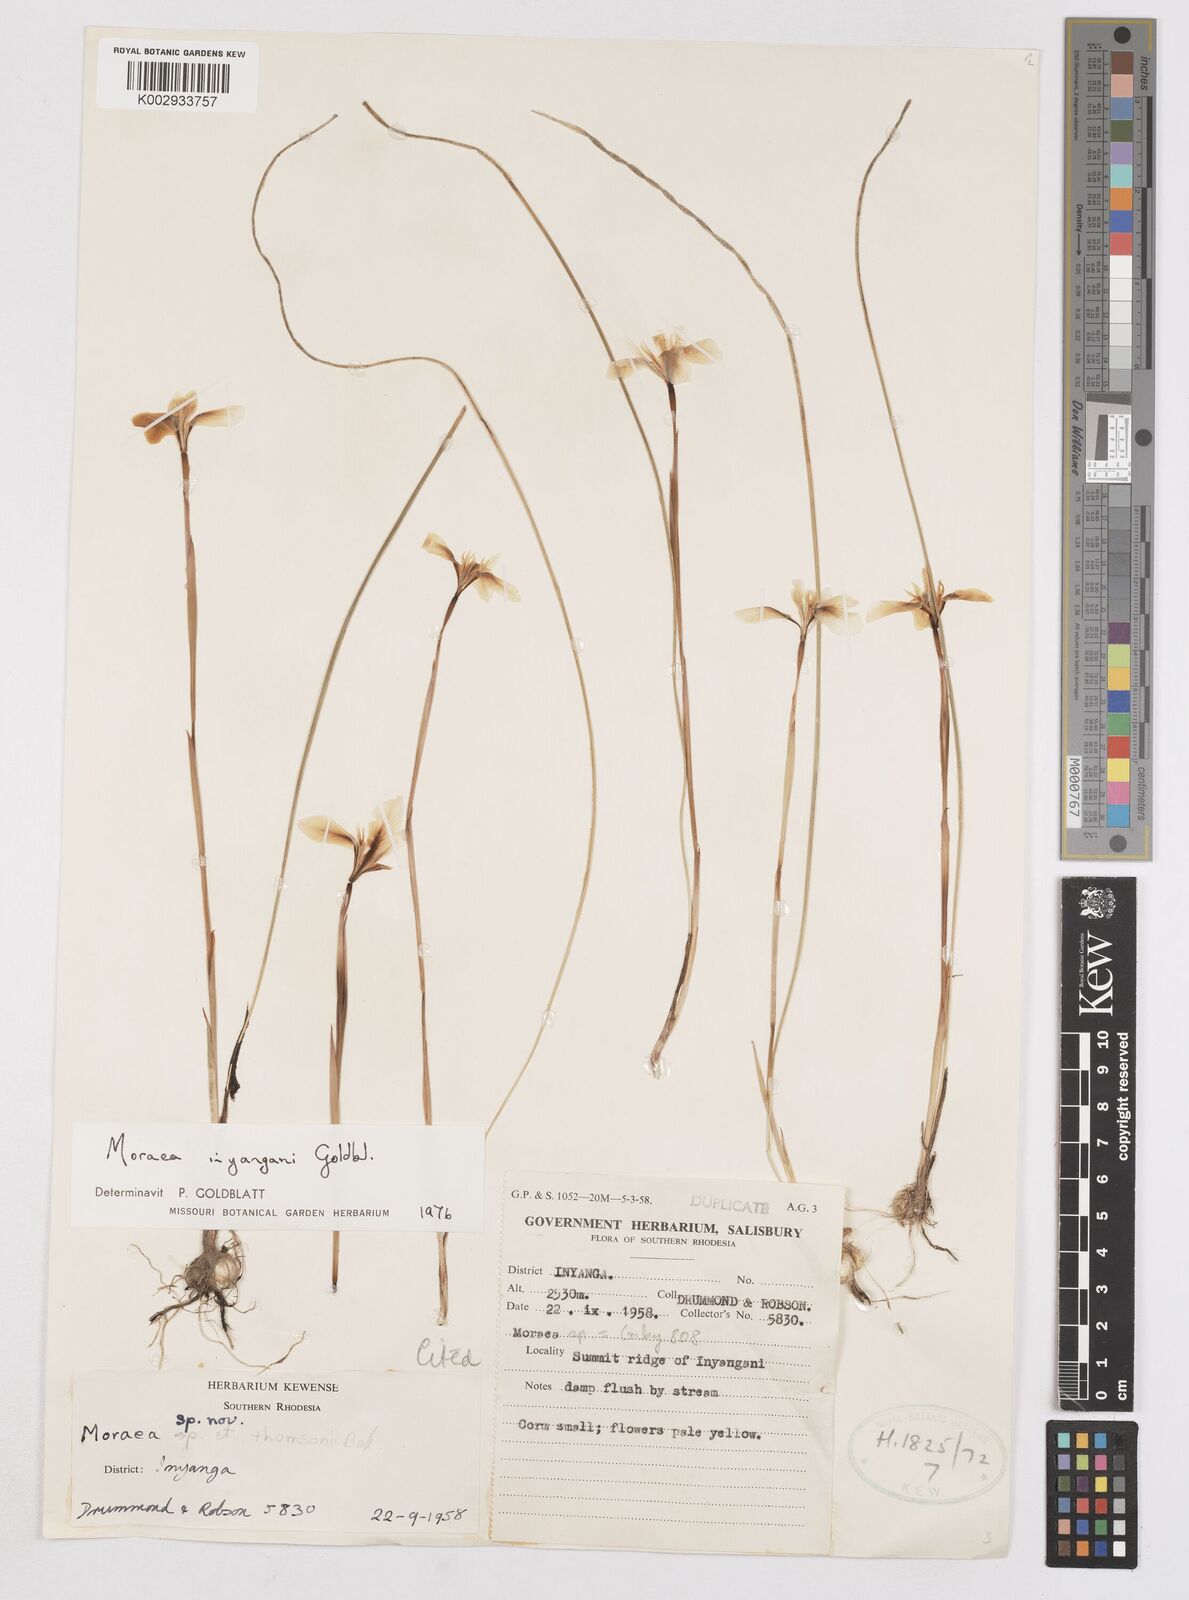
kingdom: Plantae
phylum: Tracheophyta
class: Liliopsida
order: Asparagales
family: Iridaceae
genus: Moraea
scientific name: Moraea inyangani
